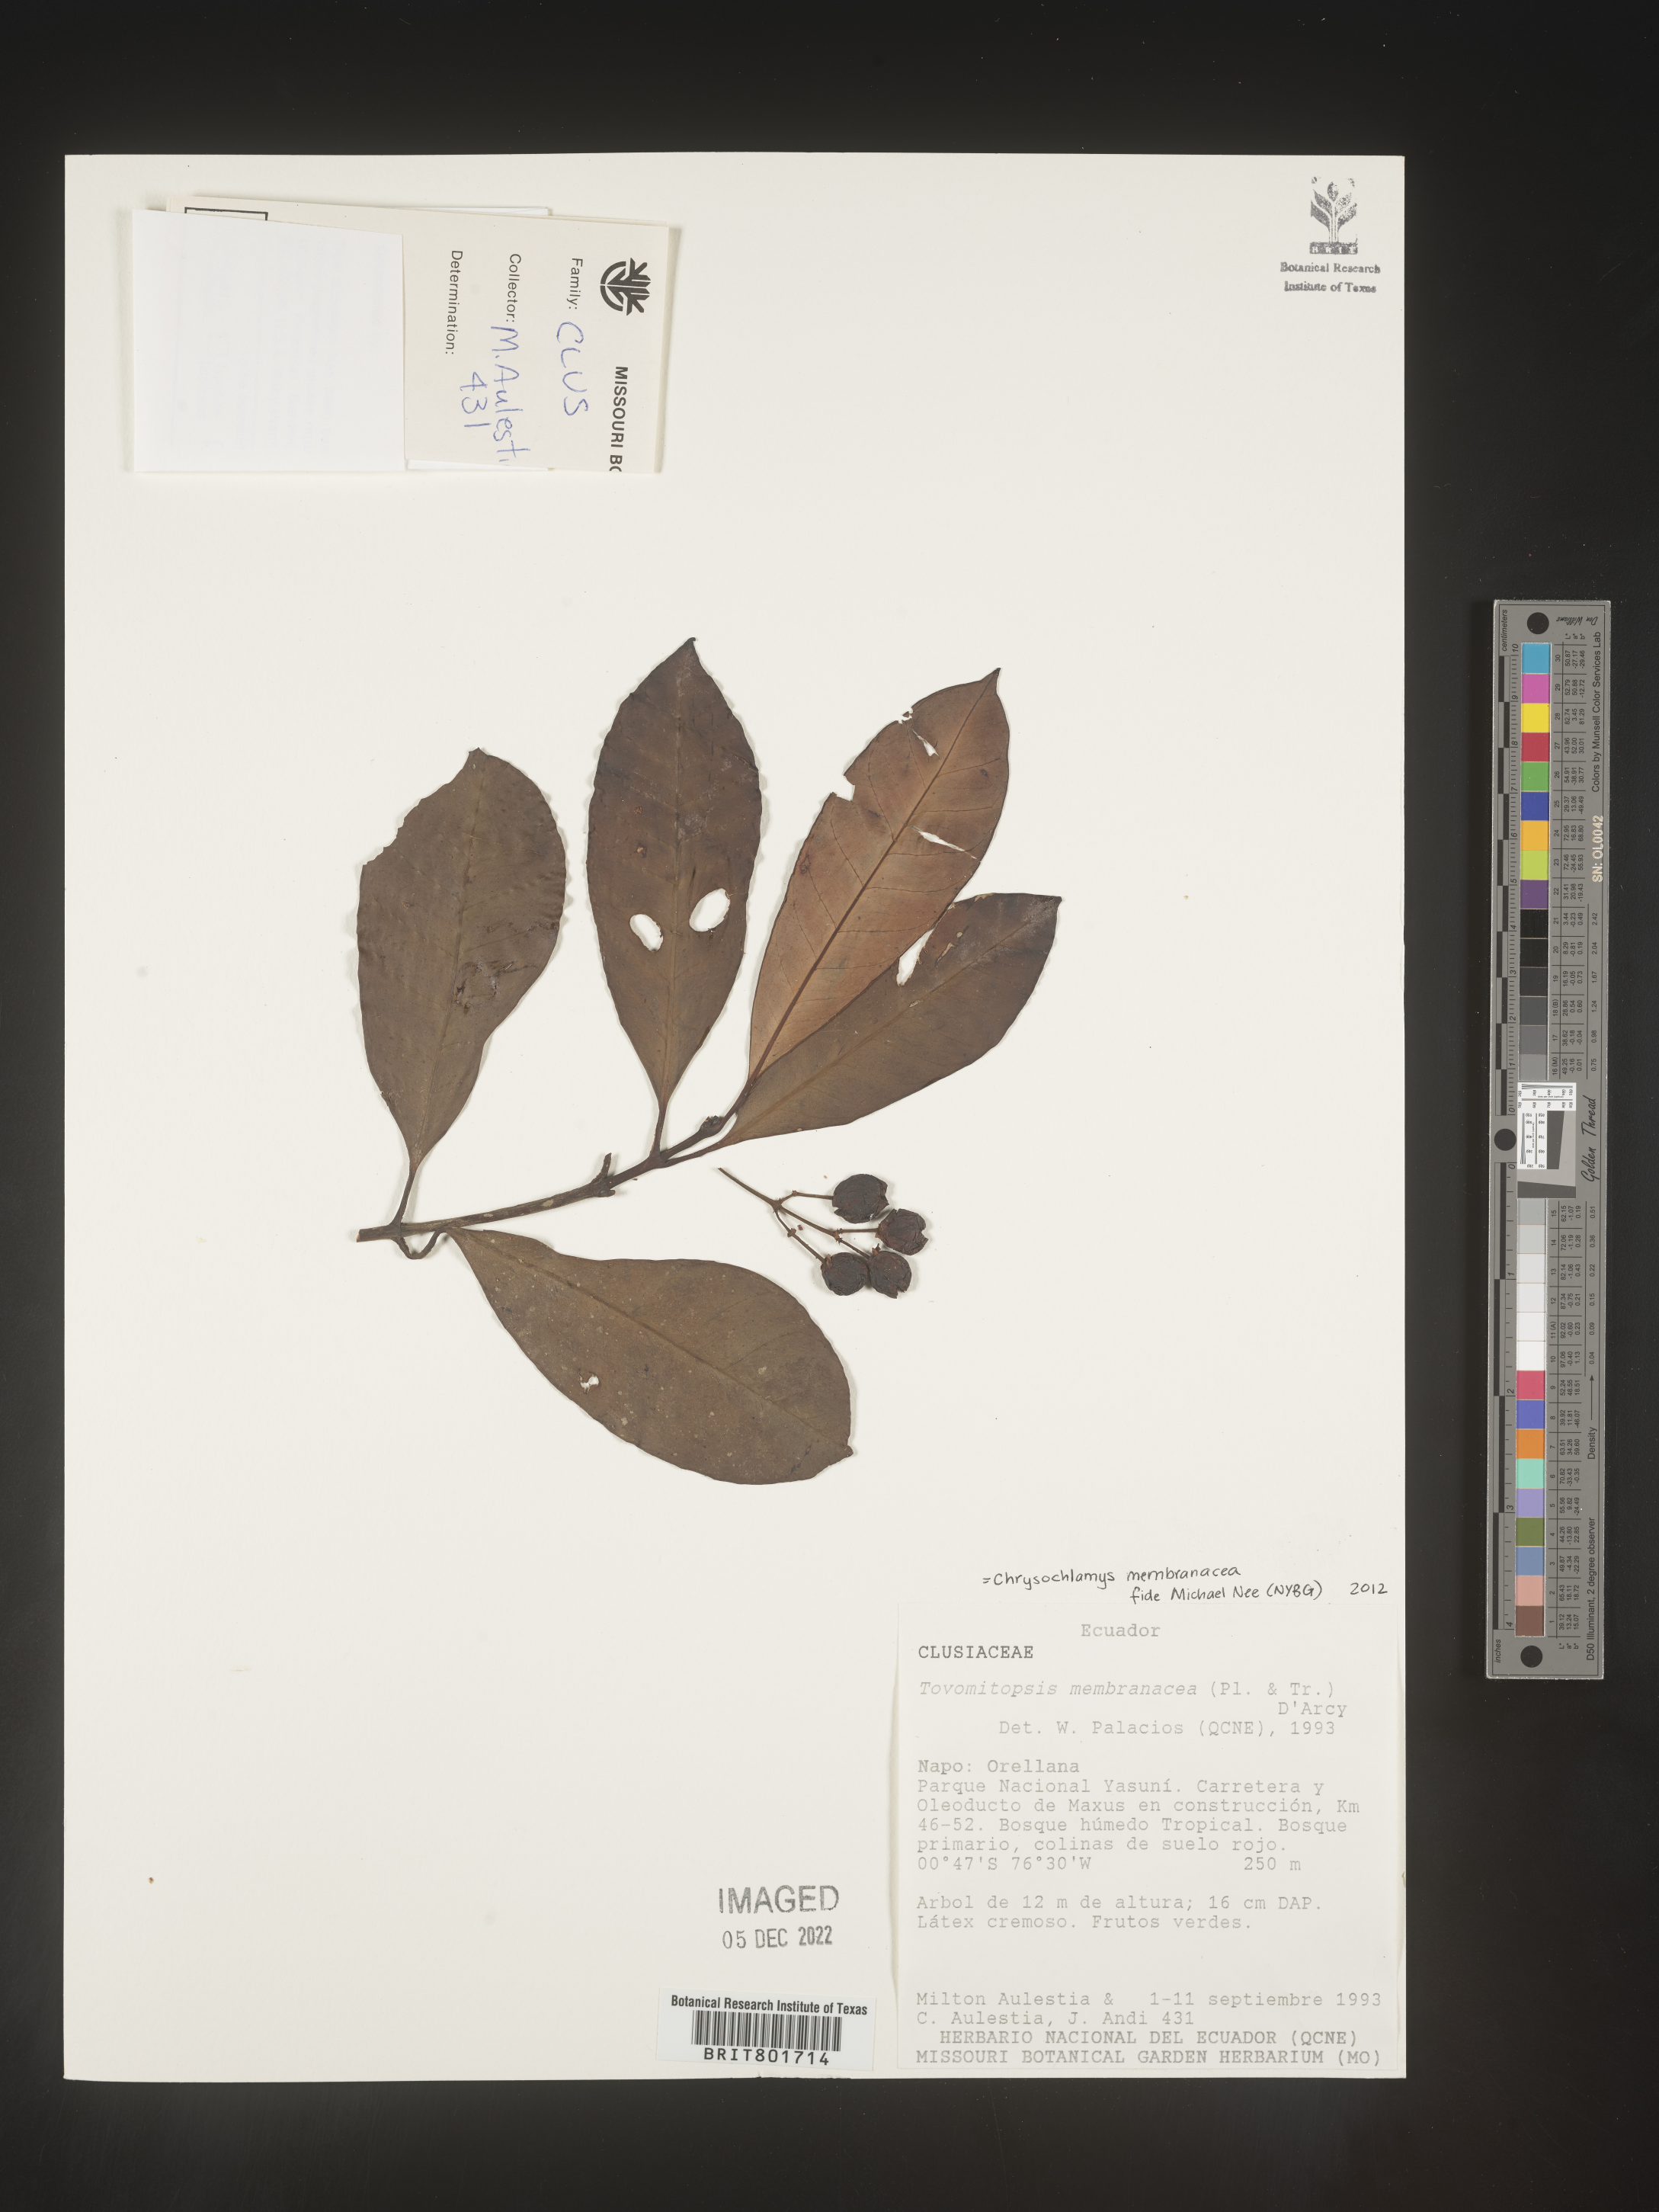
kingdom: Plantae
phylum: Tracheophyta
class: Magnoliopsida
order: Malpighiales
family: Clusiaceae
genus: Chrysochlamys
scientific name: Chrysochlamys membranacea
